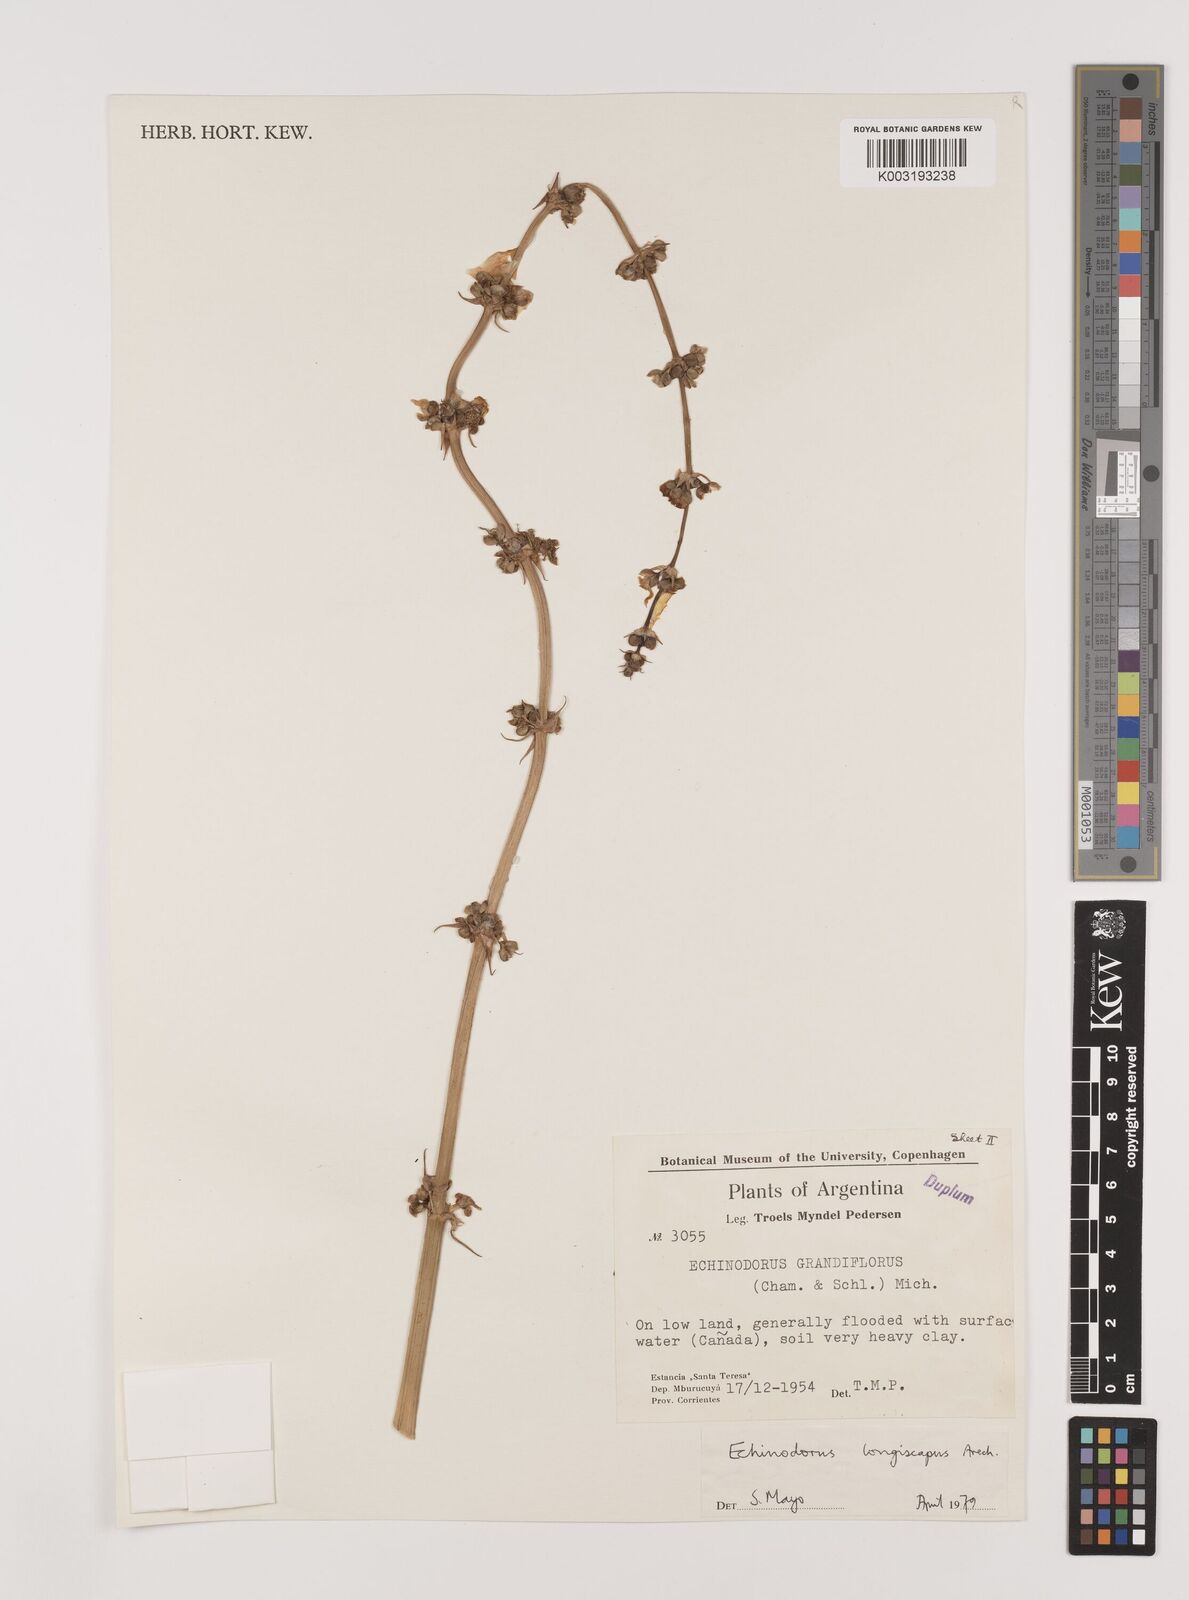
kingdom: Plantae
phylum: Tracheophyta
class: Liliopsida
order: Alismatales
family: Alismataceae
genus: Aquarius
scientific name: Aquarius longiscapus
